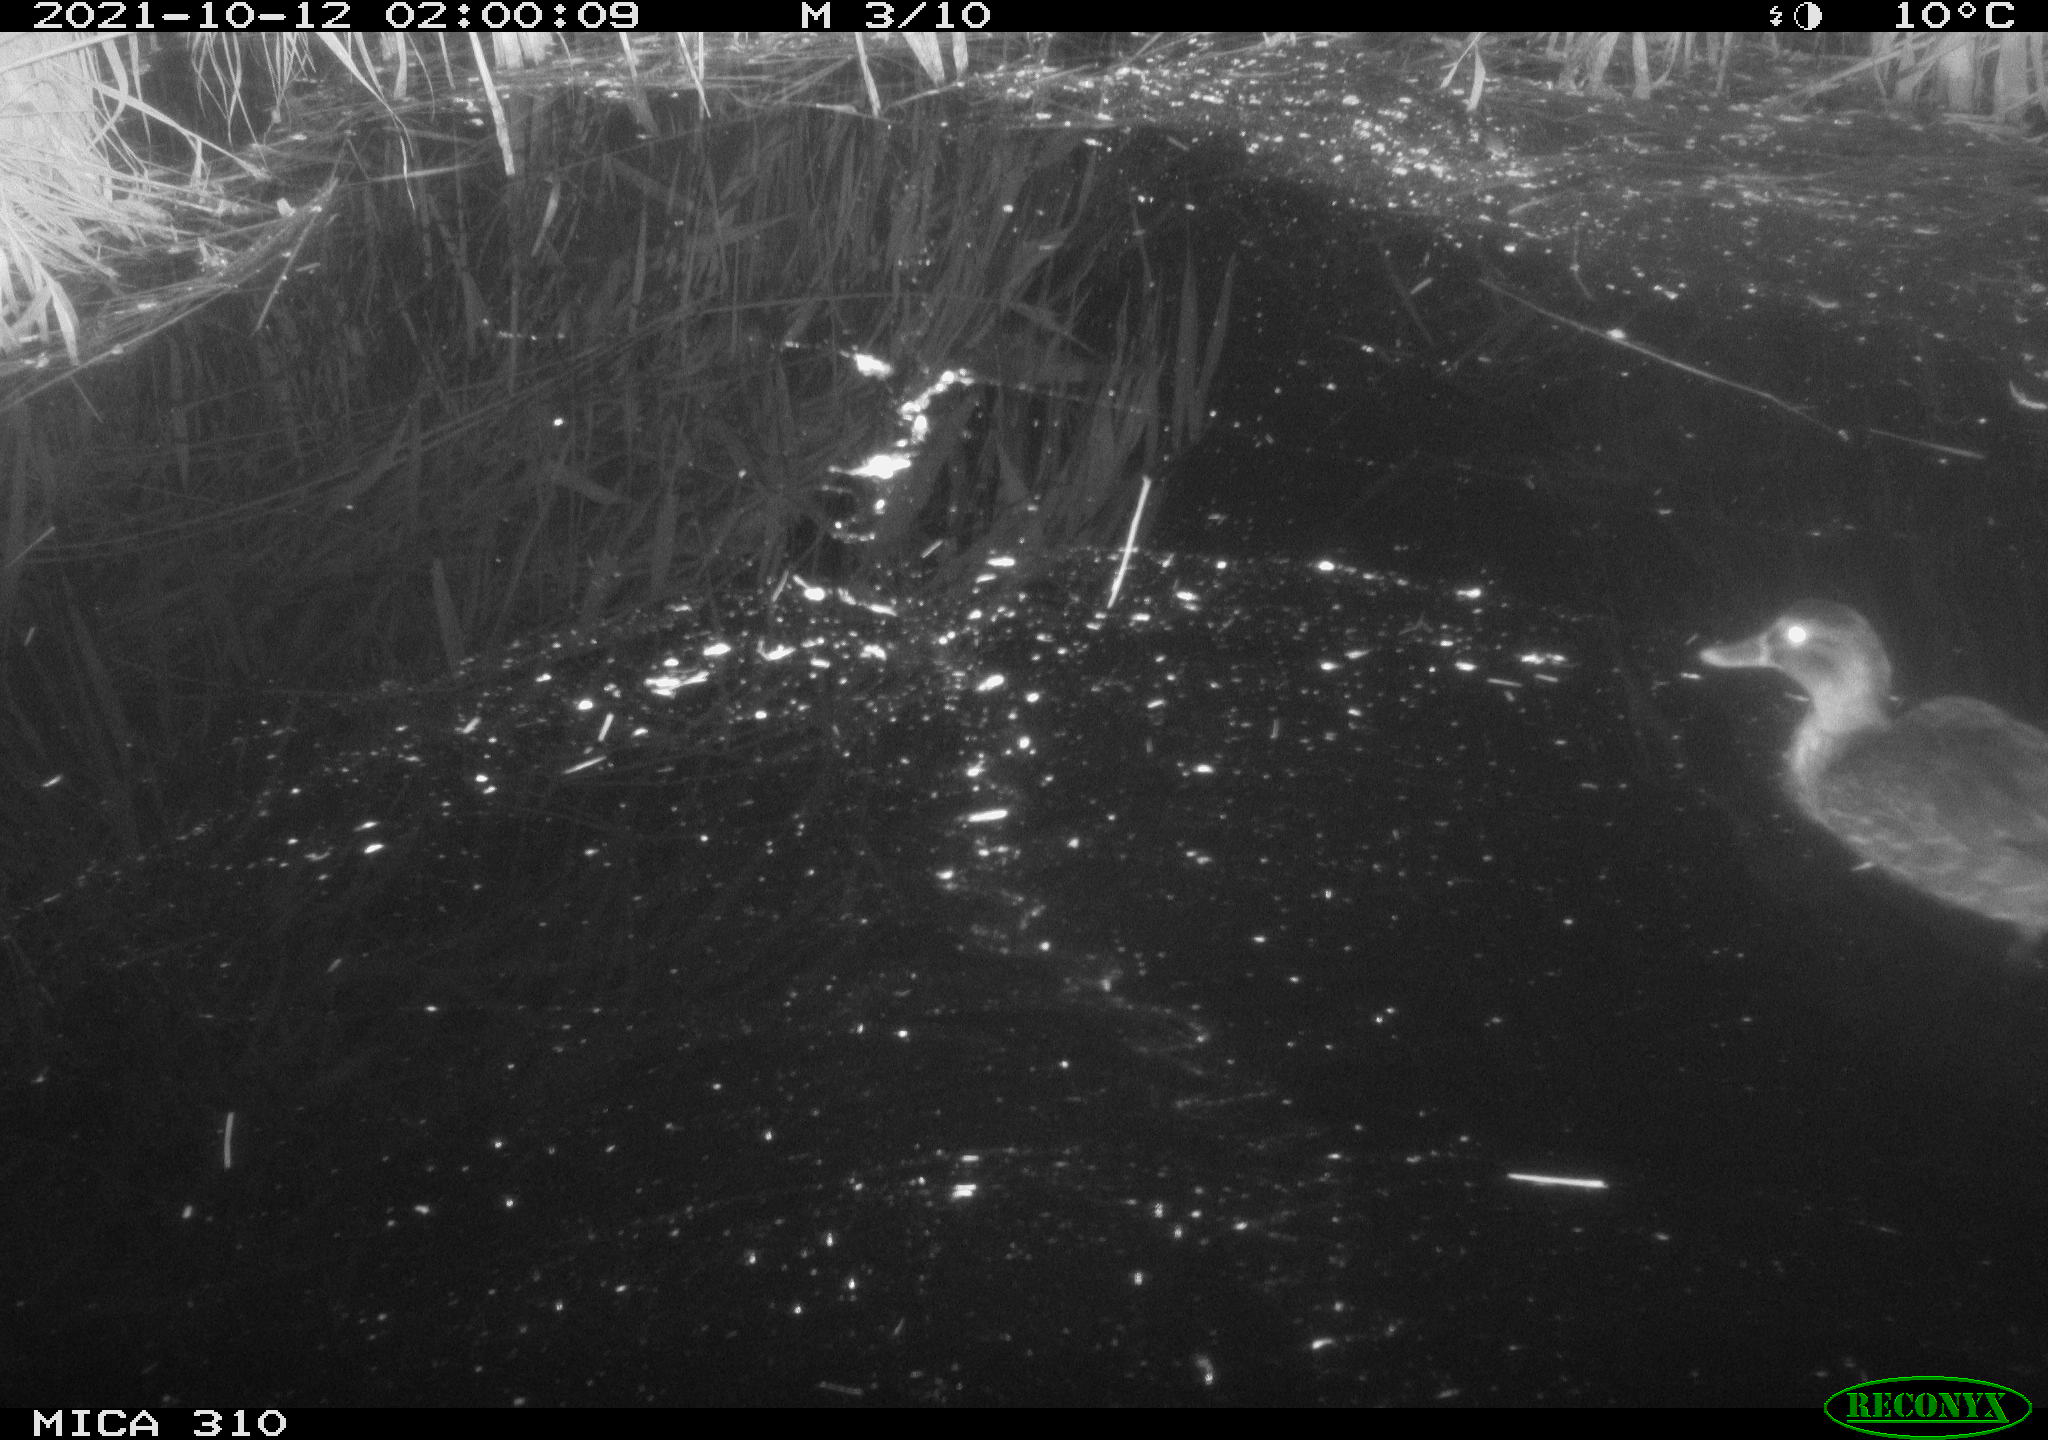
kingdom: Animalia
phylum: Chordata
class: Aves
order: Anseriformes
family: Anatidae
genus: Anas
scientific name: Anas platyrhynchos
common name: Mallard
